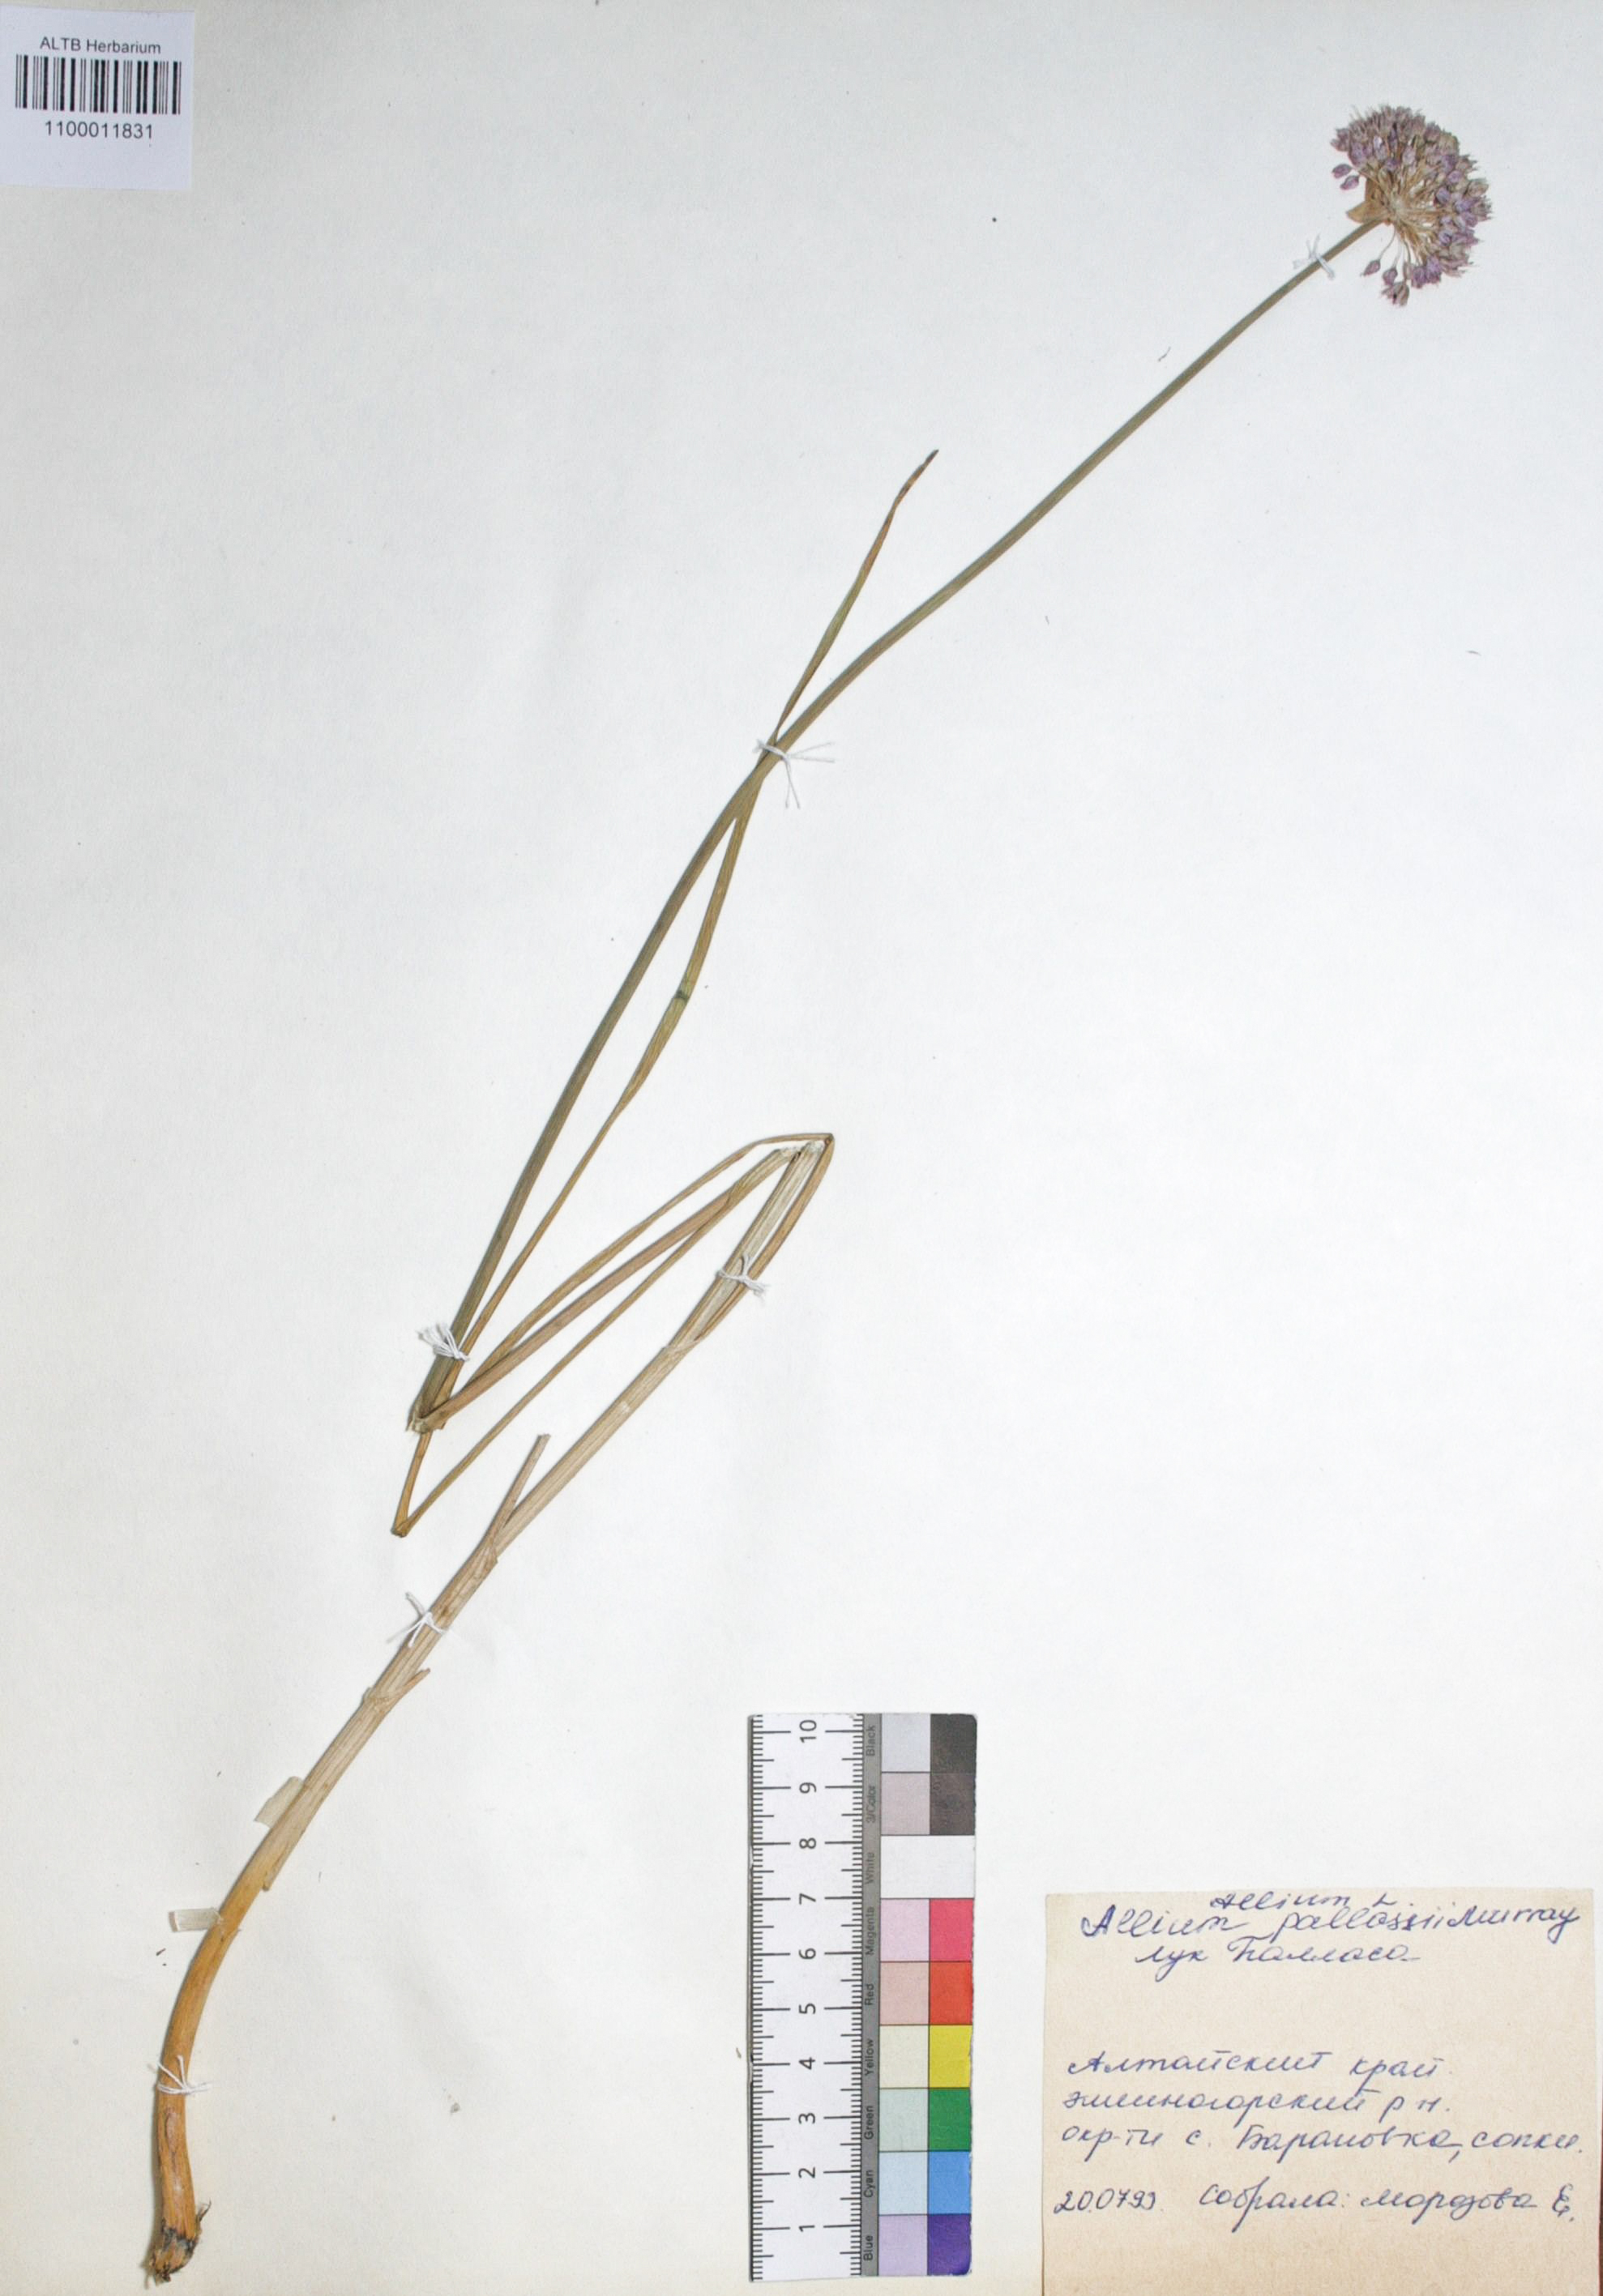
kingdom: Plantae
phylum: Tracheophyta
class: Liliopsida
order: Asparagales
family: Amaryllidaceae
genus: Allium
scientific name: Allium pallasii
